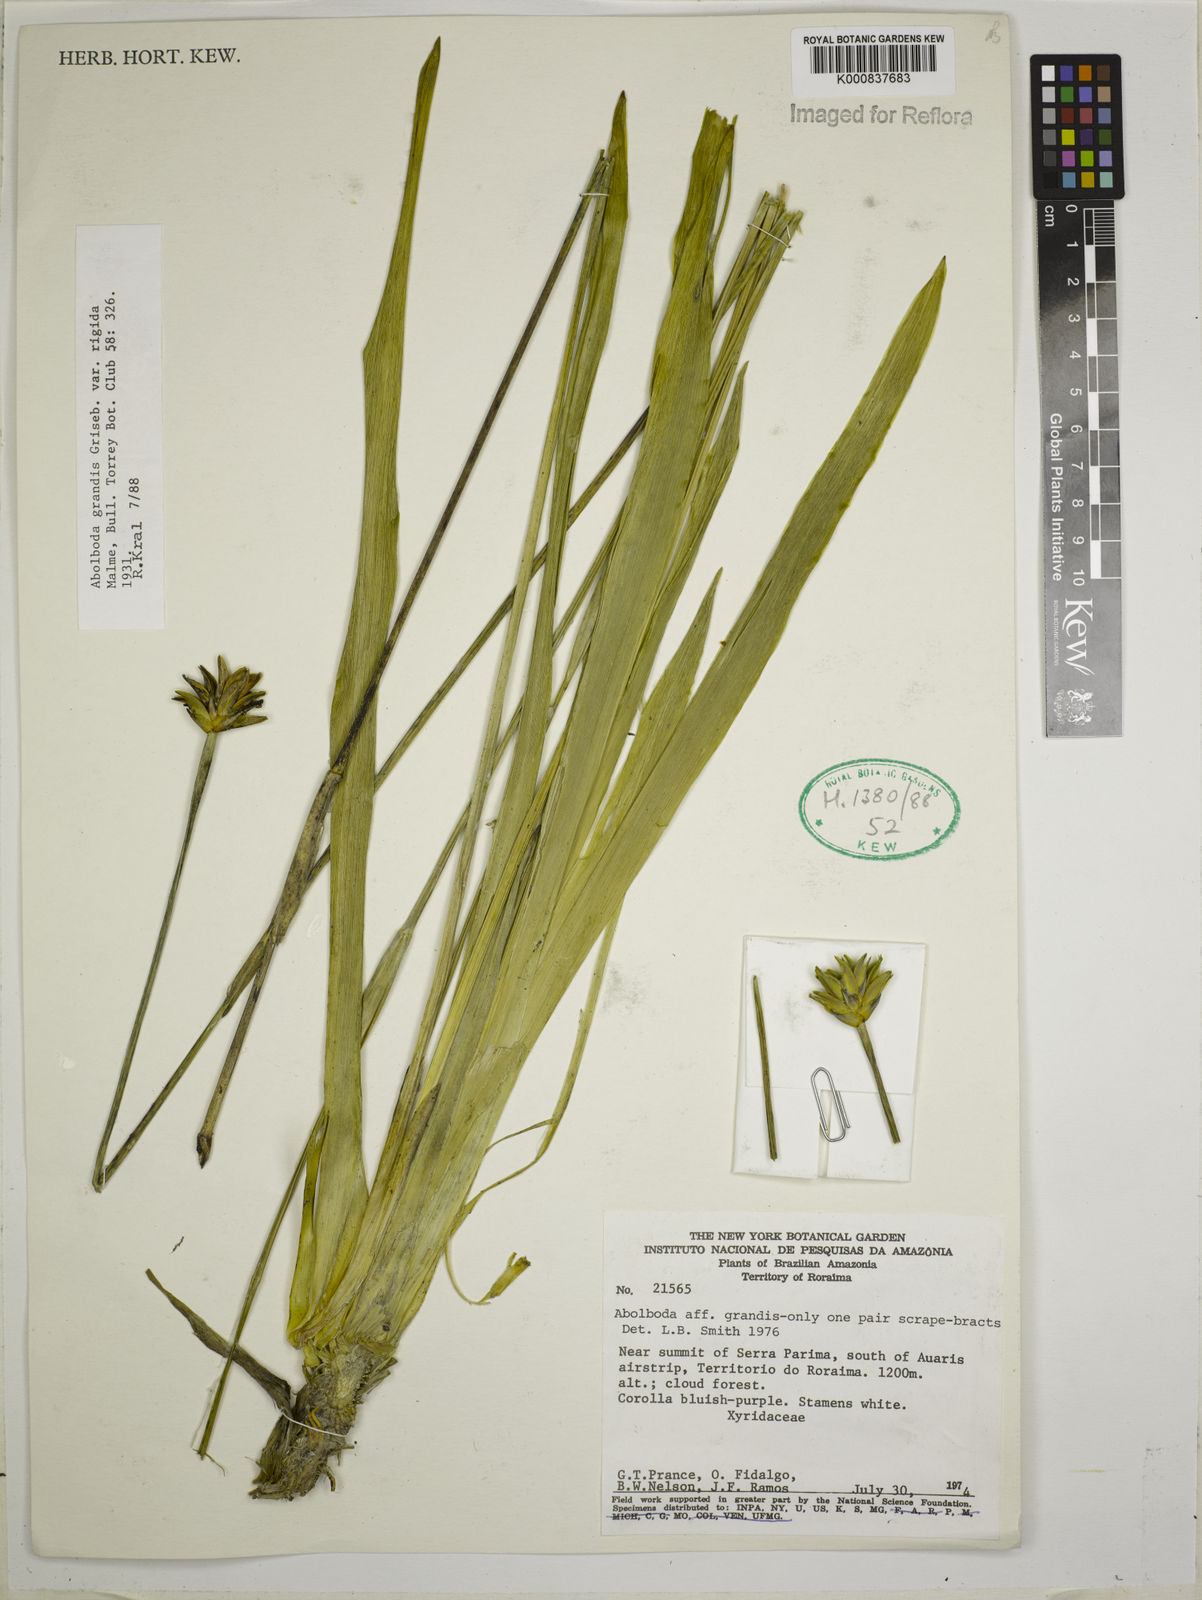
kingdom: Plantae
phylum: Tracheophyta
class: Liliopsida
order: Poales
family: Xyridaceae
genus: Abolboda
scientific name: Abolboda grandis
